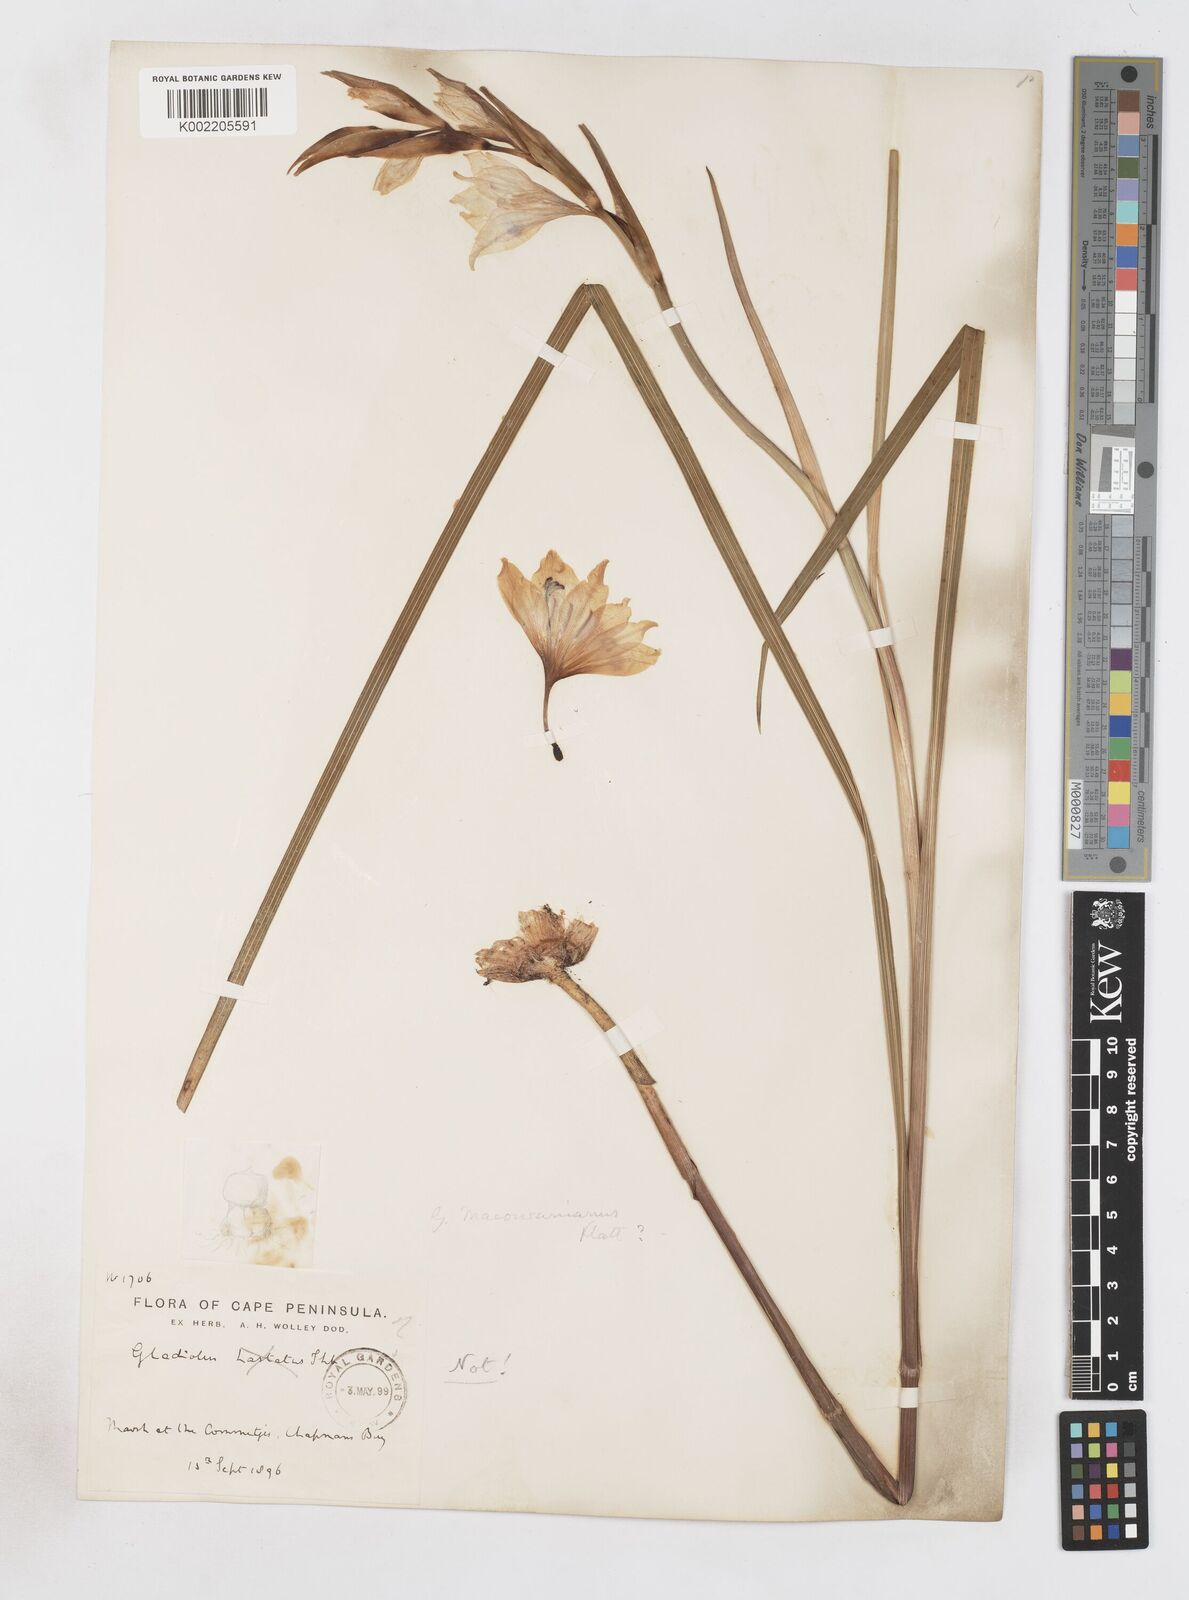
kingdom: Plantae
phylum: Tracheophyta
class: Liliopsida
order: Asparagales
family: Iridaceae
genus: Gladiolus
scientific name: Gladiolus carneus
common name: Painted-lady
